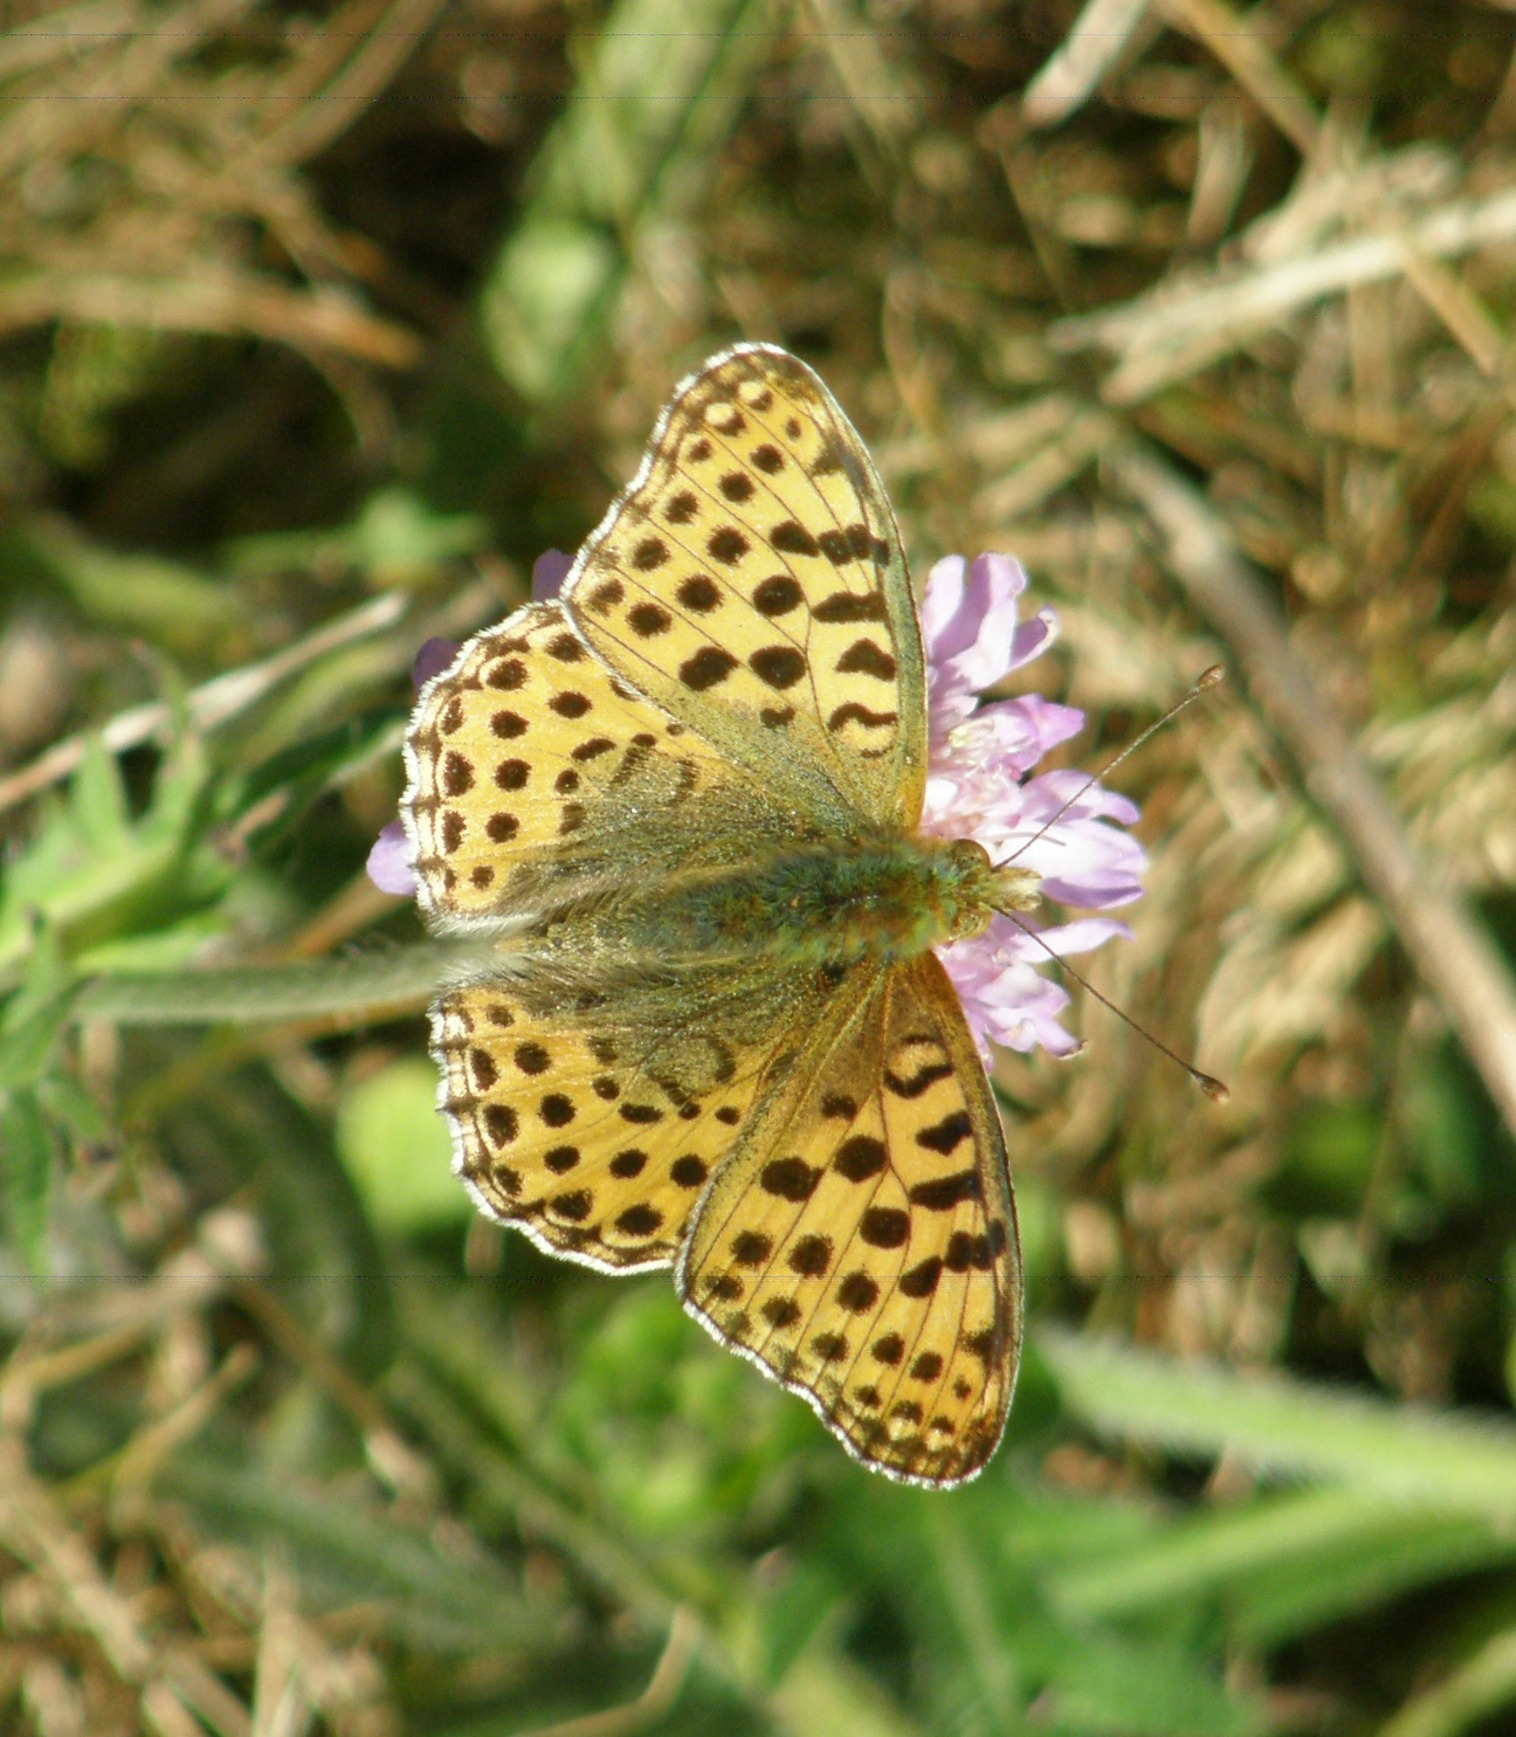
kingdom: Animalia
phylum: Arthropoda
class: Insecta
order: Lepidoptera
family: Nymphalidae
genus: Issoria
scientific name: Issoria lathonia
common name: Storplettet perlemorsommerfugl
